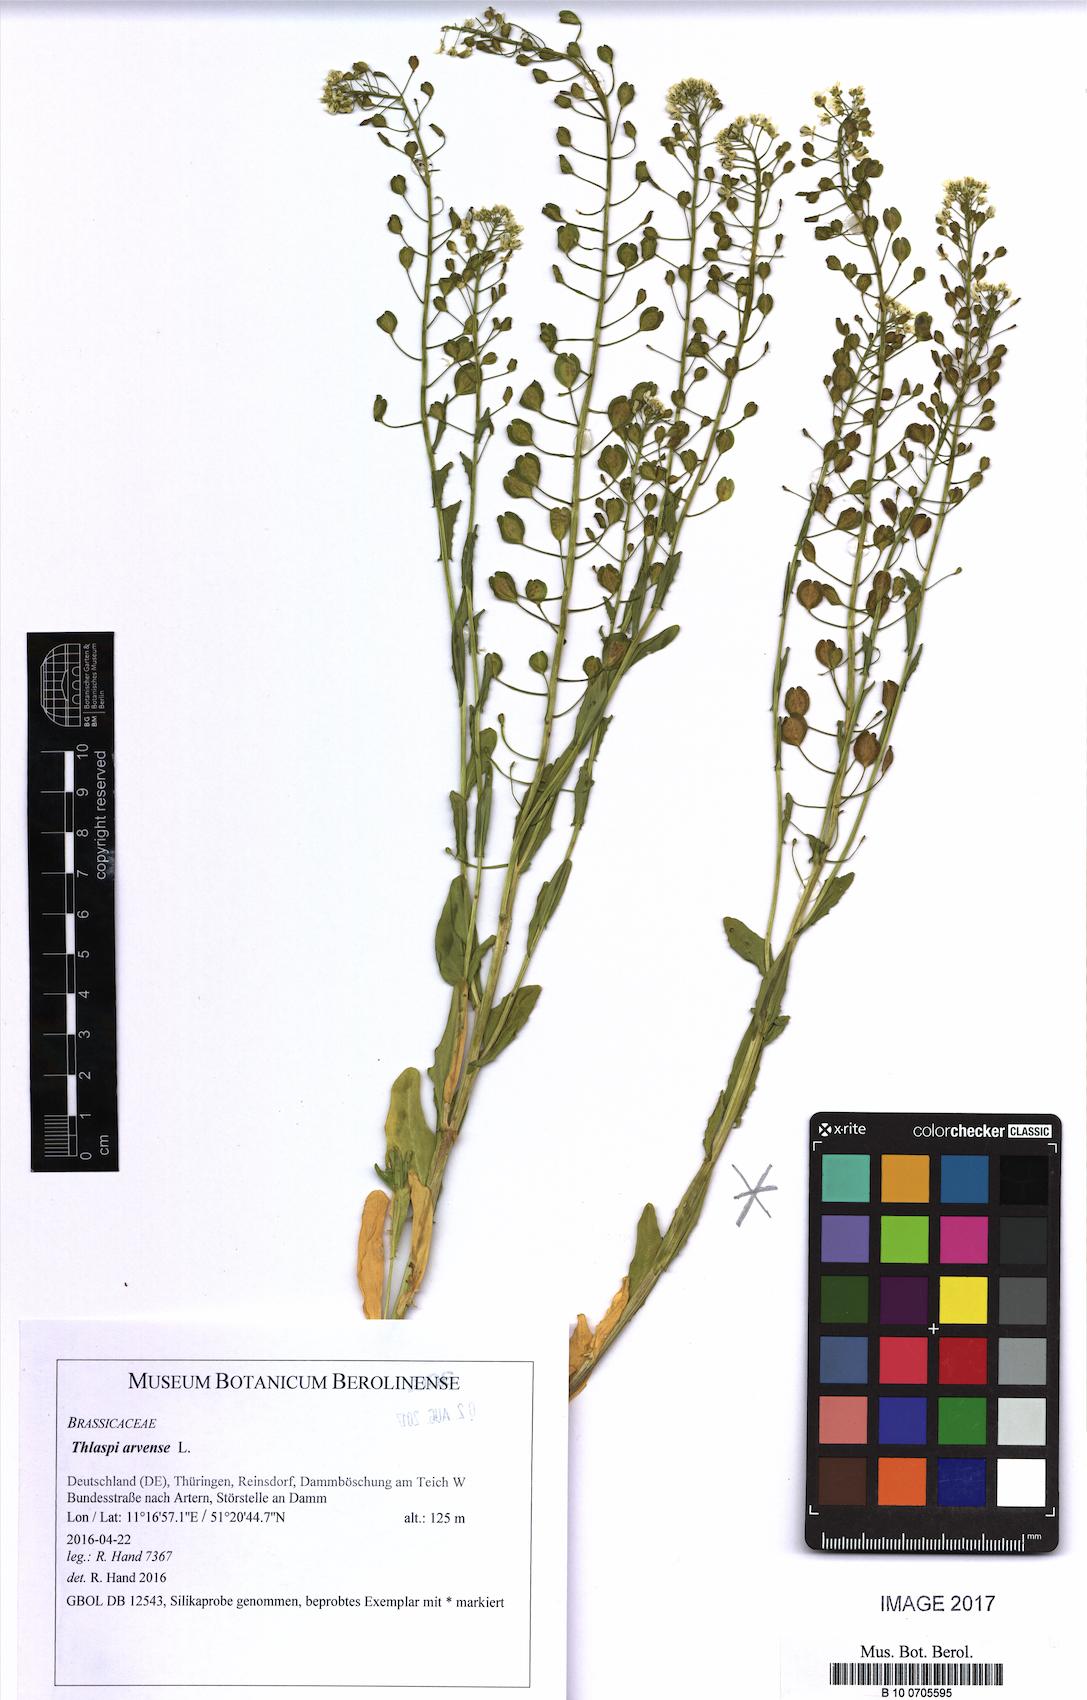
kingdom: Plantae
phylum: Tracheophyta
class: Magnoliopsida
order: Brassicales
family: Brassicaceae
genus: Thlaspi
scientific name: Thlaspi arvense
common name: Field pennycress
